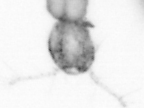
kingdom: Animalia
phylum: Arthropoda
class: Copepoda
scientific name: Copepoda
